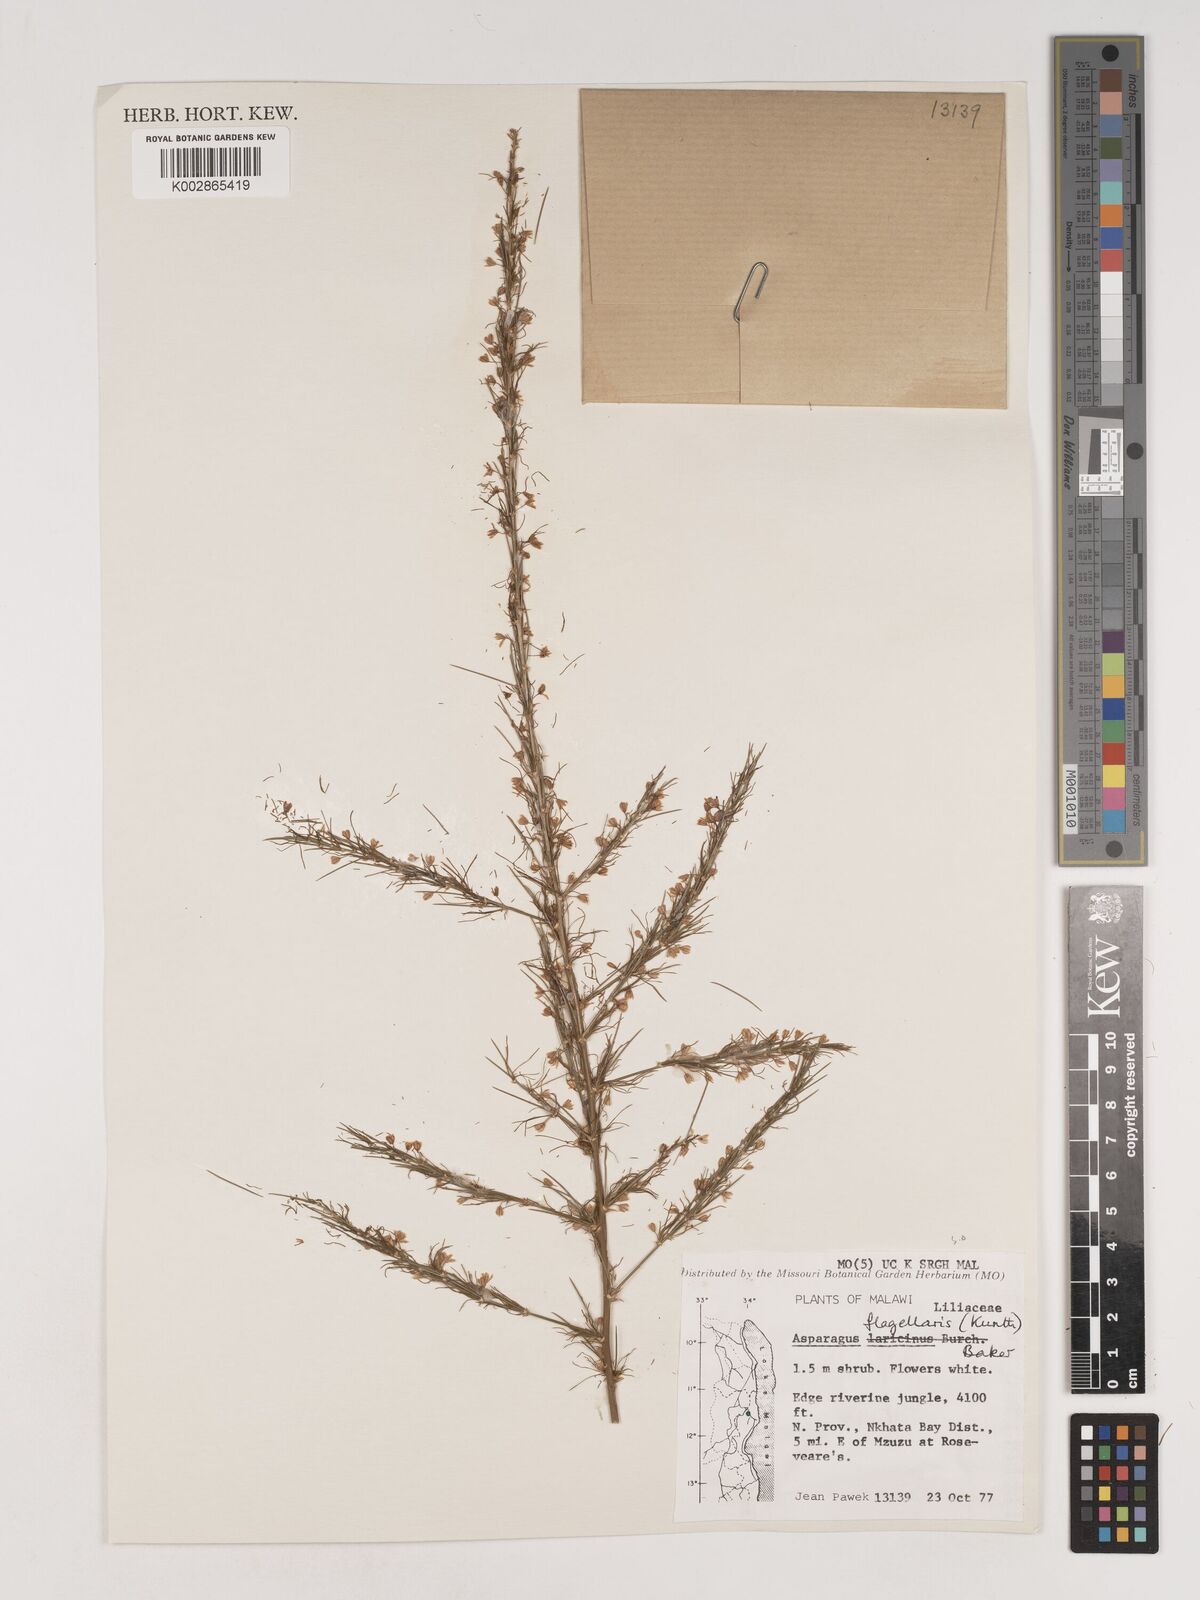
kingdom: Plantae
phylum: Tracheophyta
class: Liliopsida
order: Asparagales
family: Asparagaceae
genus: Asparagus
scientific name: Asparagus flagellaris
